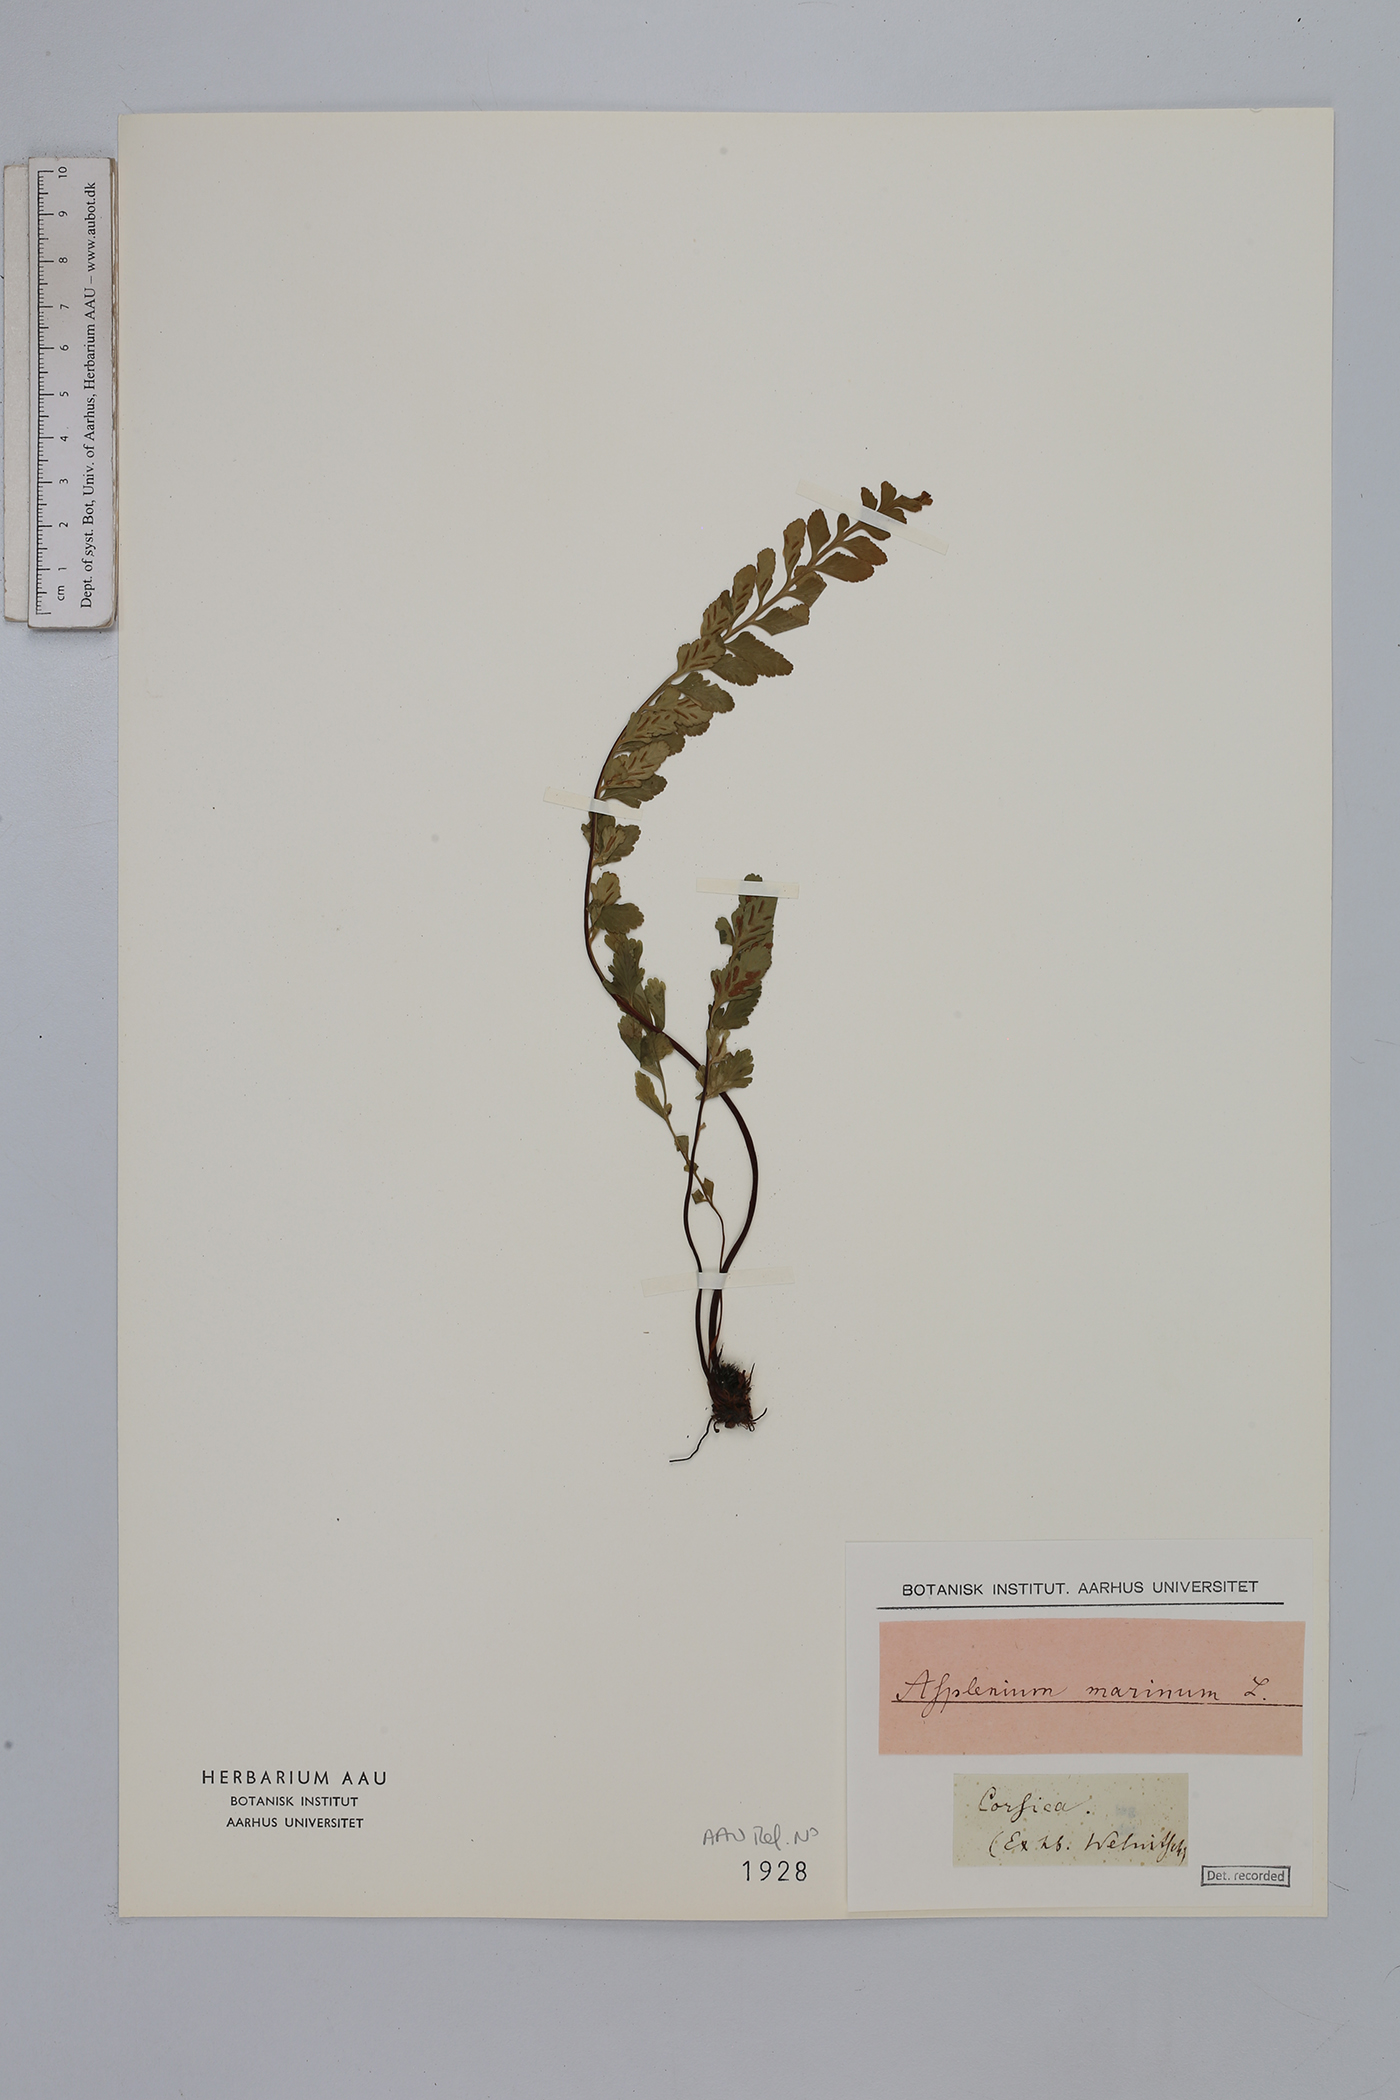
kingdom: Plantae
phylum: Tracheophyta
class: Polypodiopsida
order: Polypodiales
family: Aspleniaceae
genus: Asplenium
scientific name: Asplenium marinum
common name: Sea spleenwort
